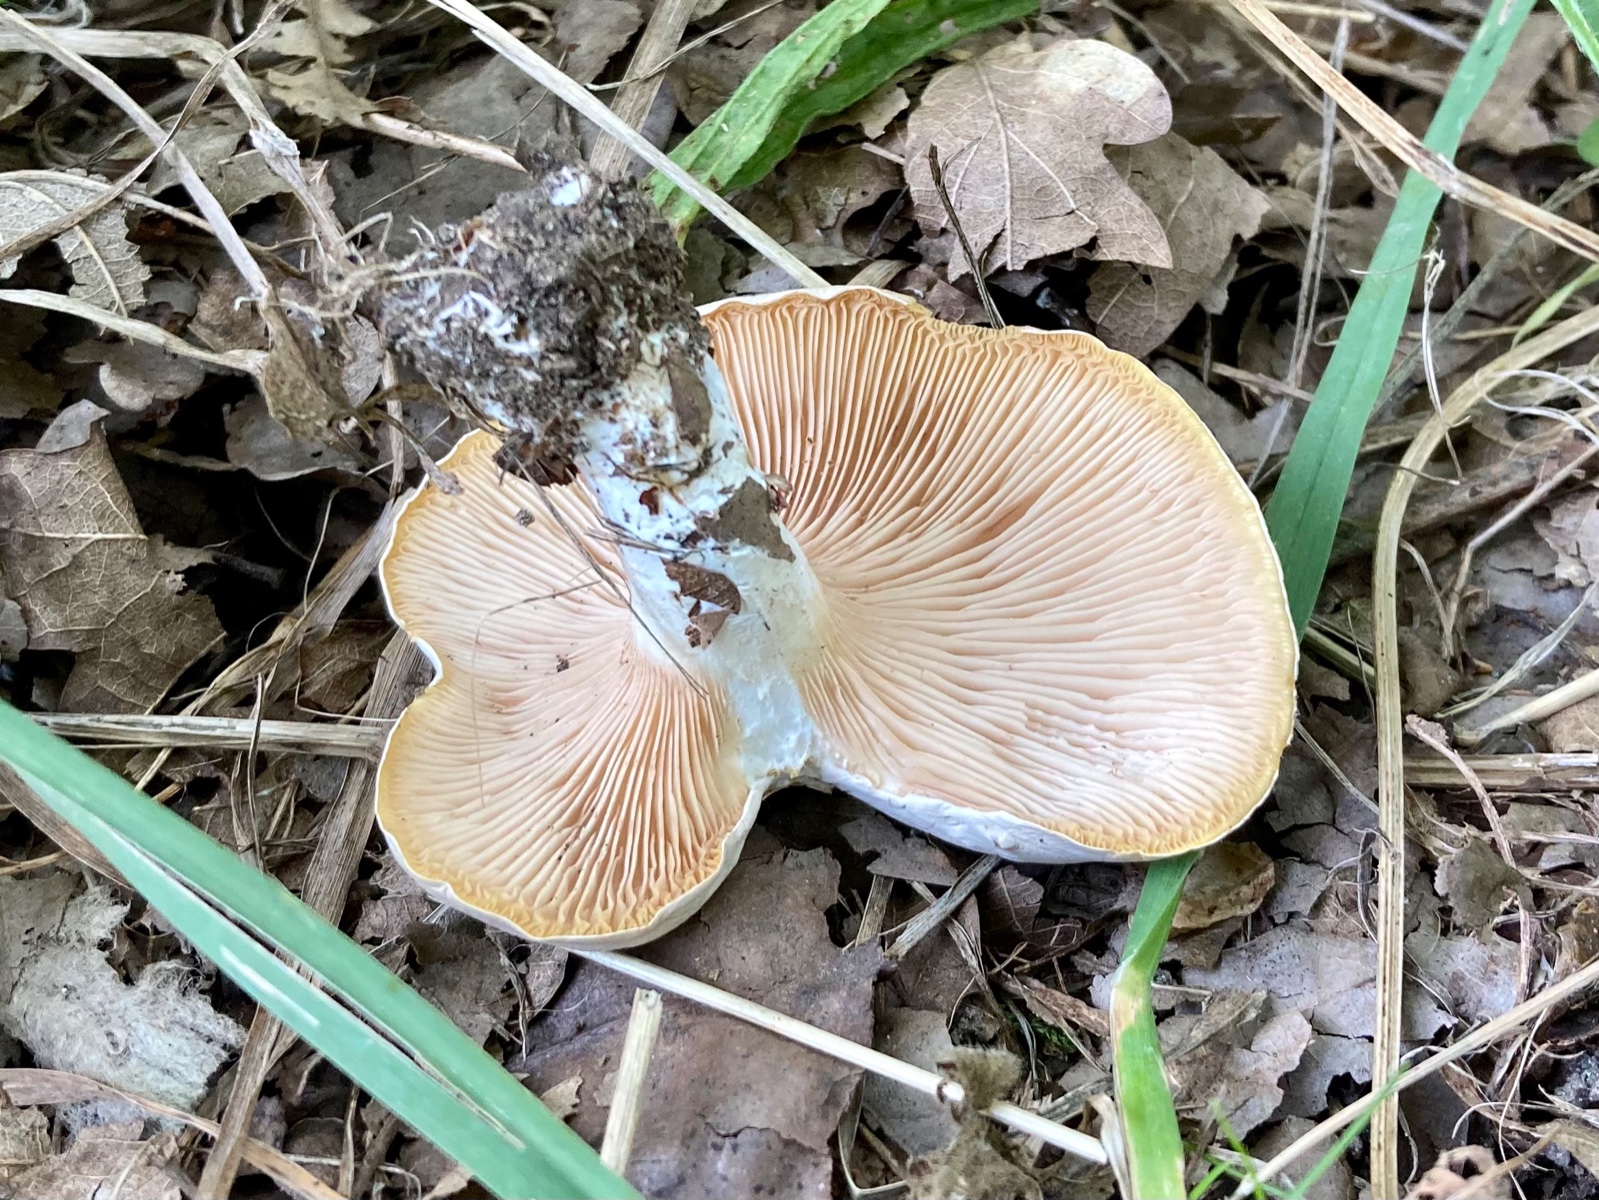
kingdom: Fungi
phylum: Basidiomycota
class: Agaricomycetes
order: Agaricales
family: Entolomataceae
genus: Clitopilus
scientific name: Clitopilus prunulus
